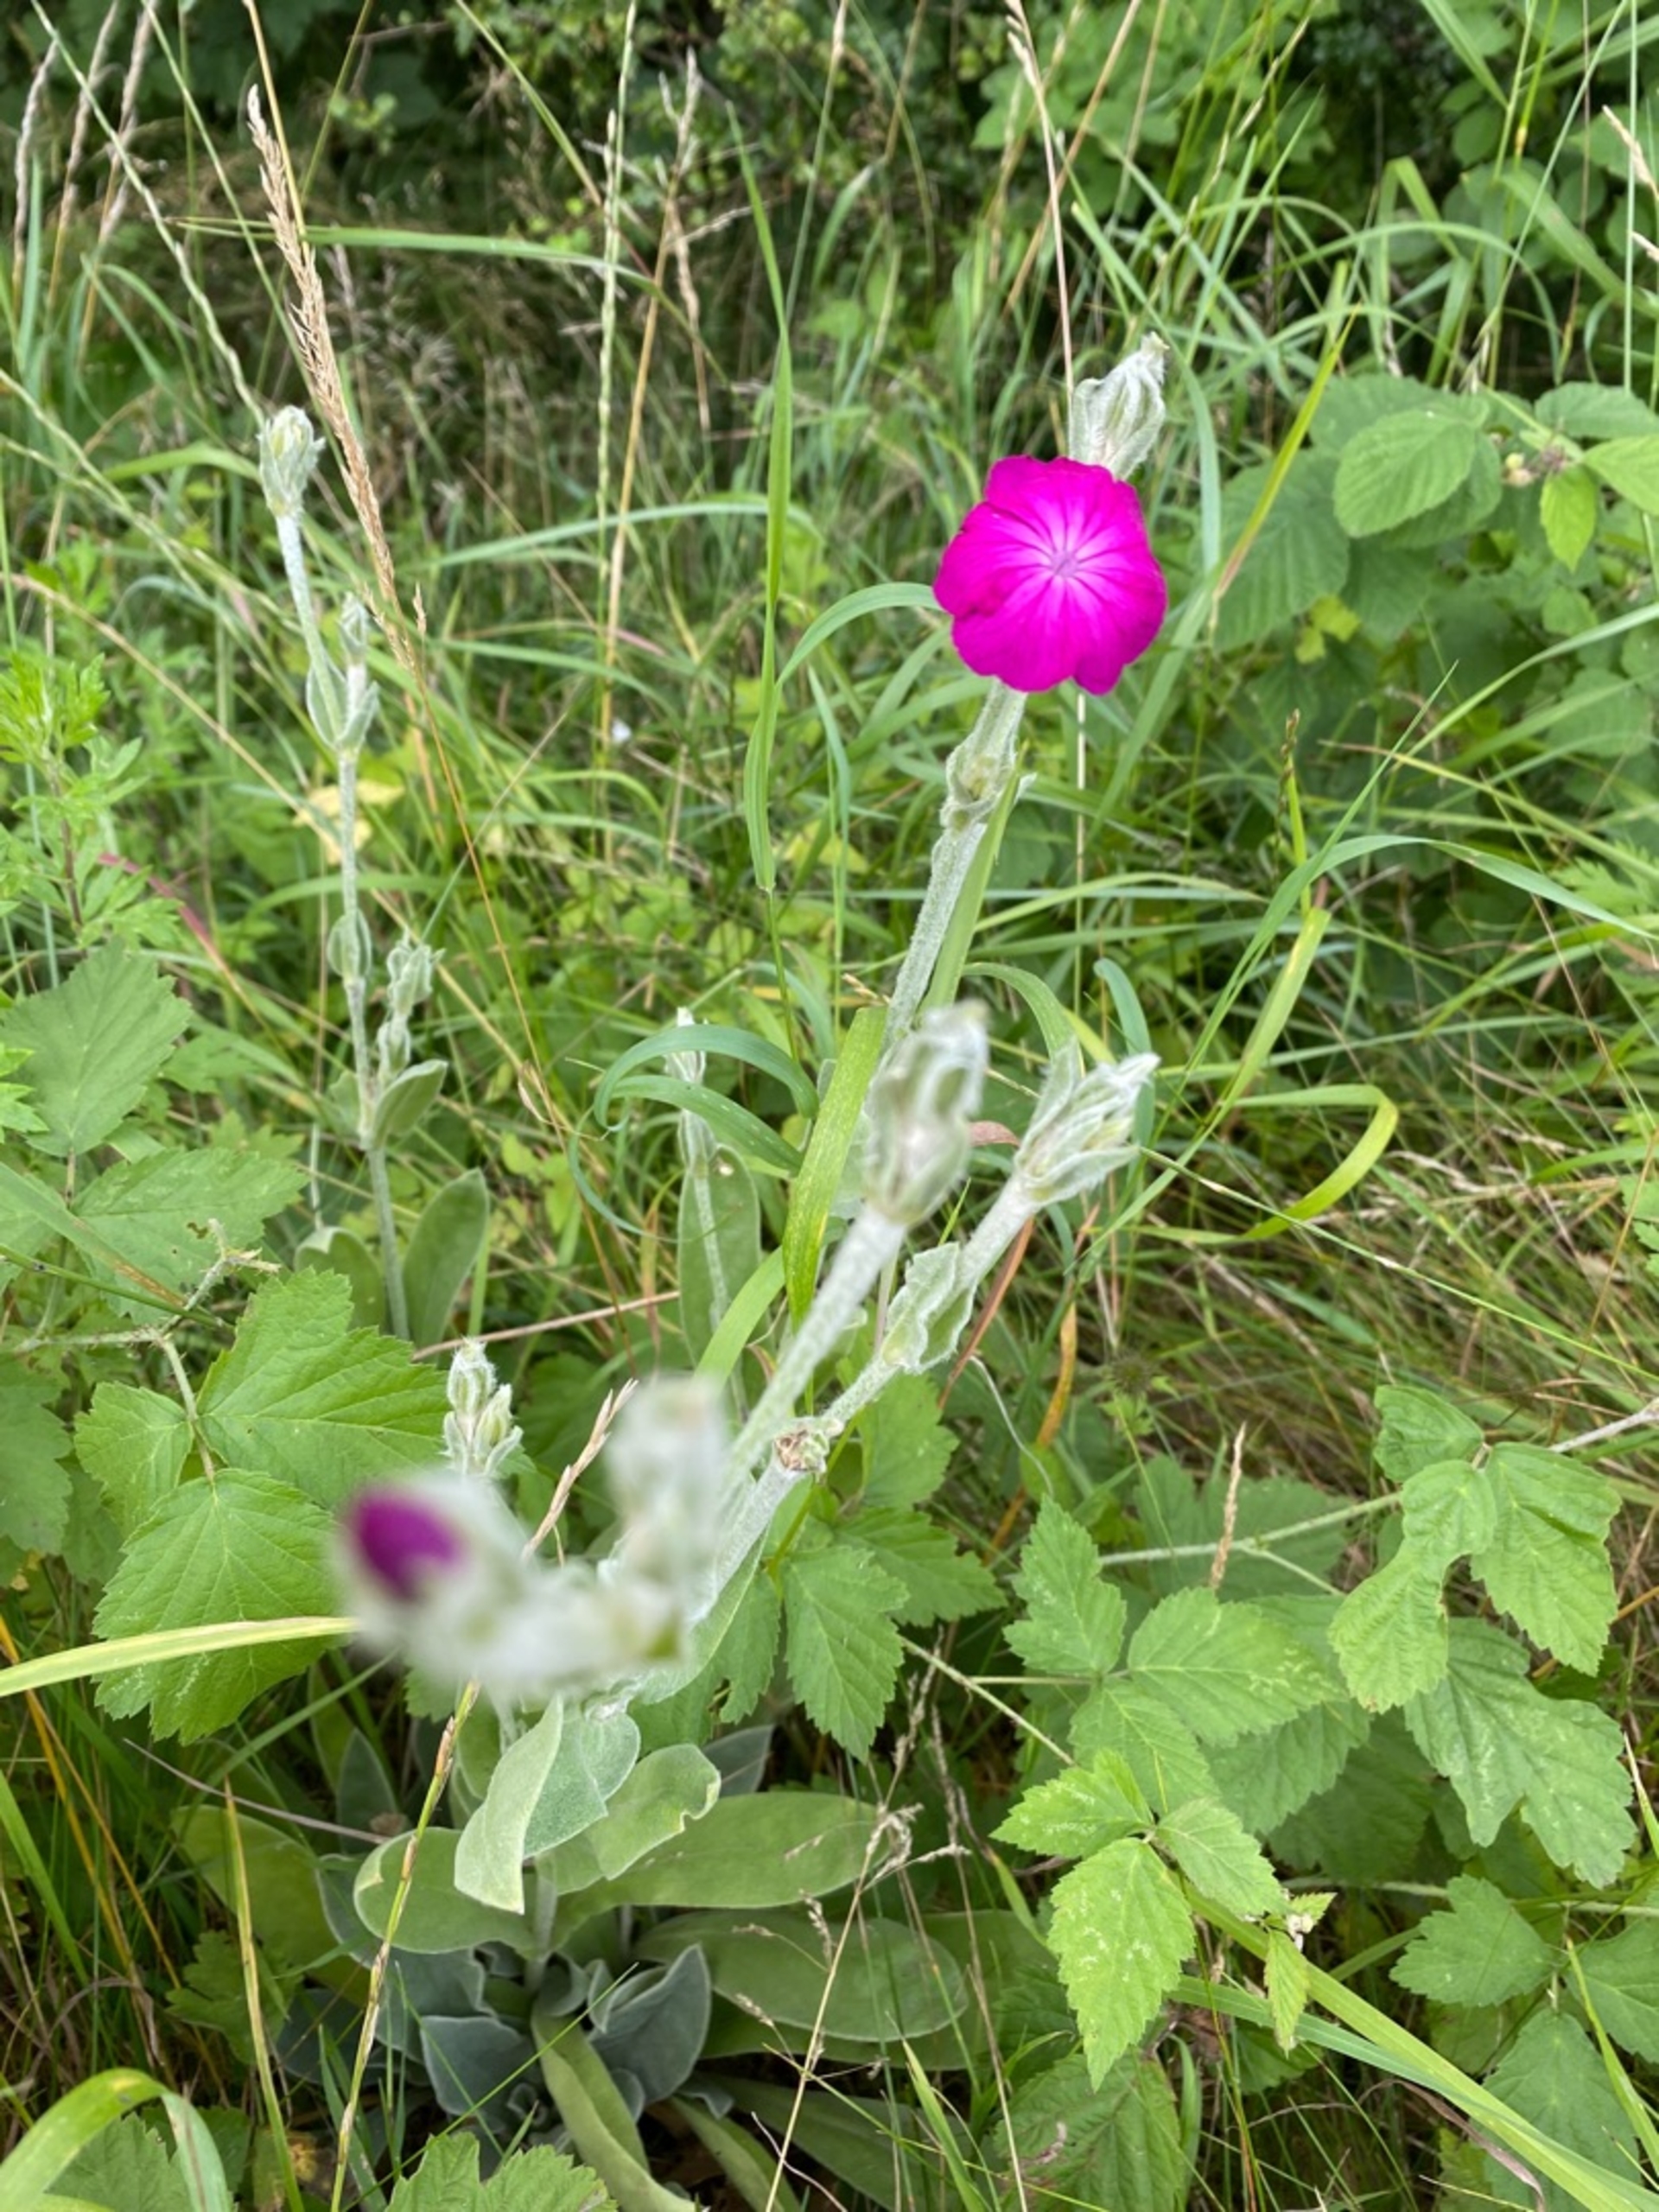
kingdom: Plantae
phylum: Tracheophyta
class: Magnoliopsida
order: Caryophyllales
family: Caryophyllaceae
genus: Silene
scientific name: Silene coronaria
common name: Fiksernellike
